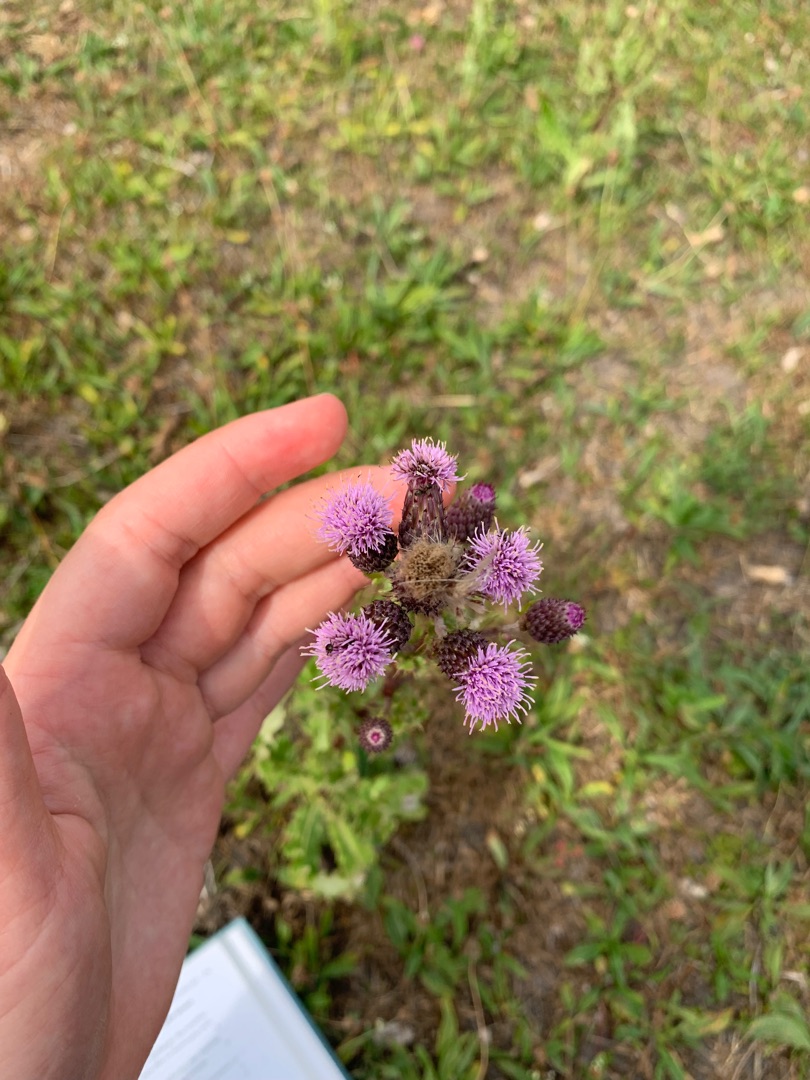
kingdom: Plantae
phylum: Tracheophyta
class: Magnoliopsida
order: Asterales
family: Asteraceae
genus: Cirsium
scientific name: Cirsium arvense
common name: Ager-tidsel
